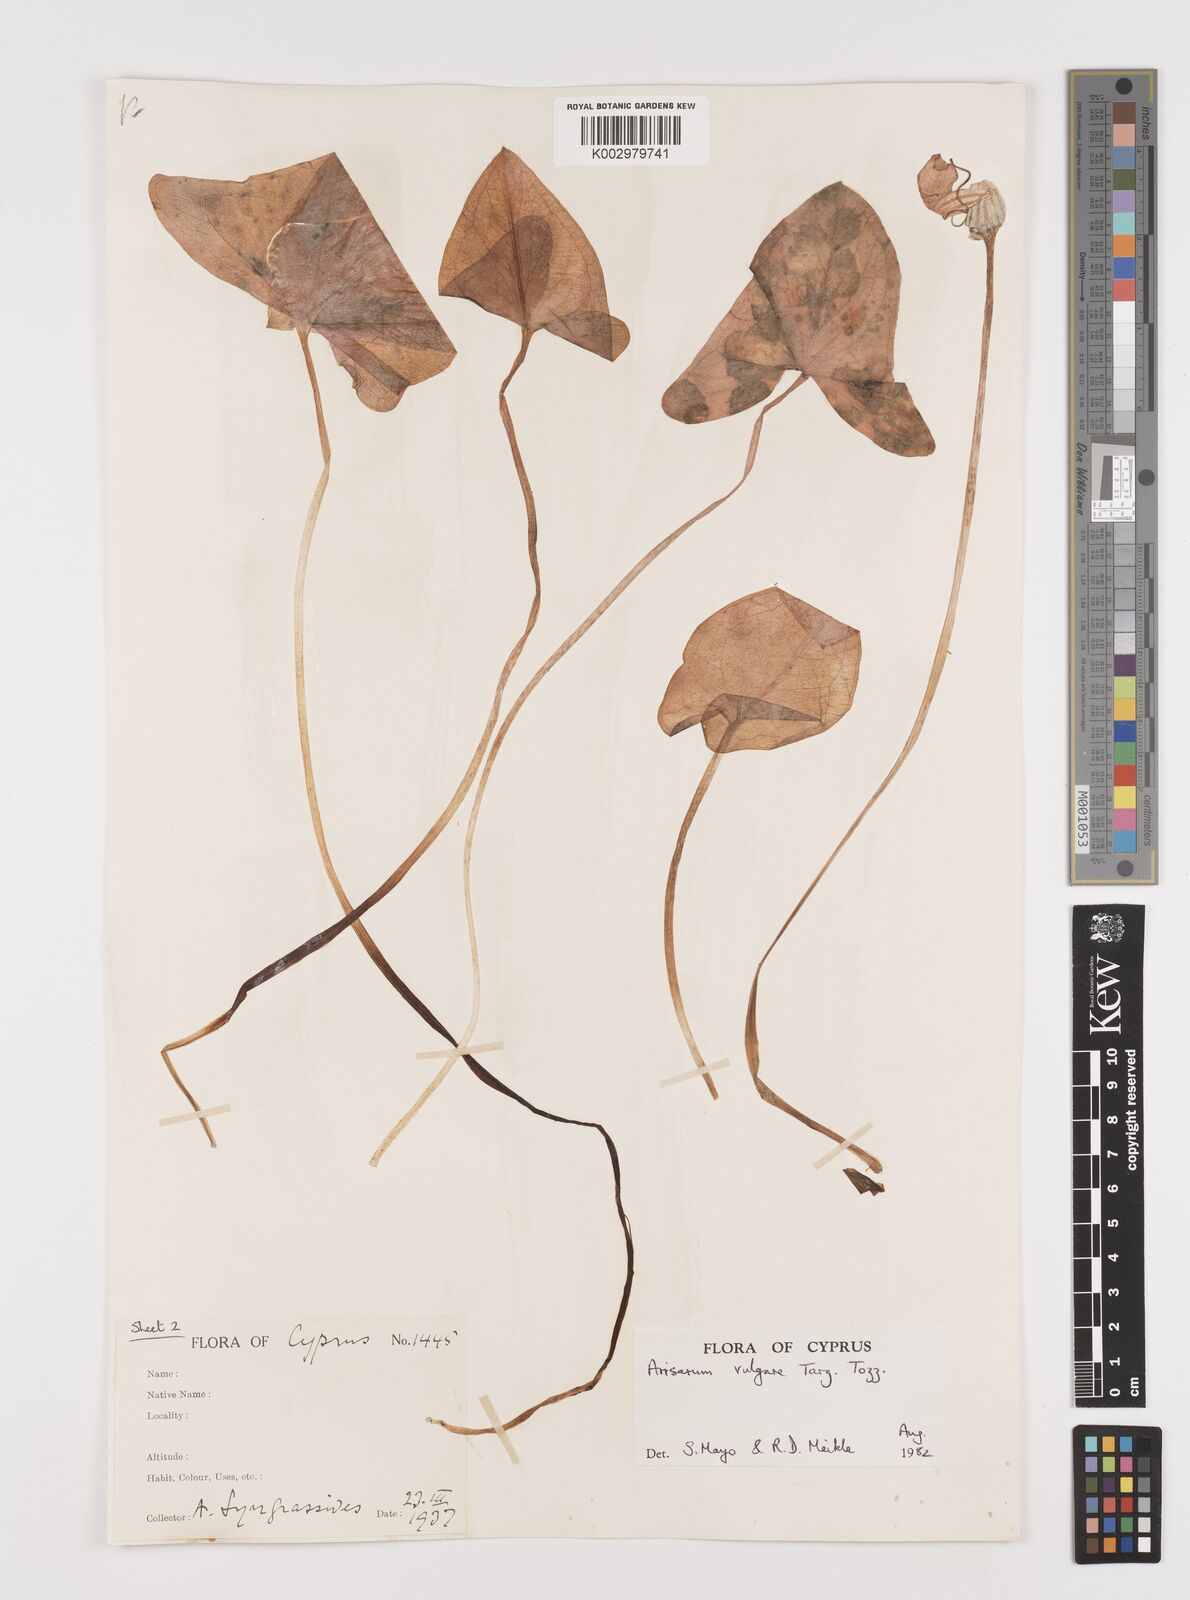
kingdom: Plantae
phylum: Tracheophyta
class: Liliopsida
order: Alismatales
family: Araceae
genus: Arisarum
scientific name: Arisarum vulgare
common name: Common arisarum
